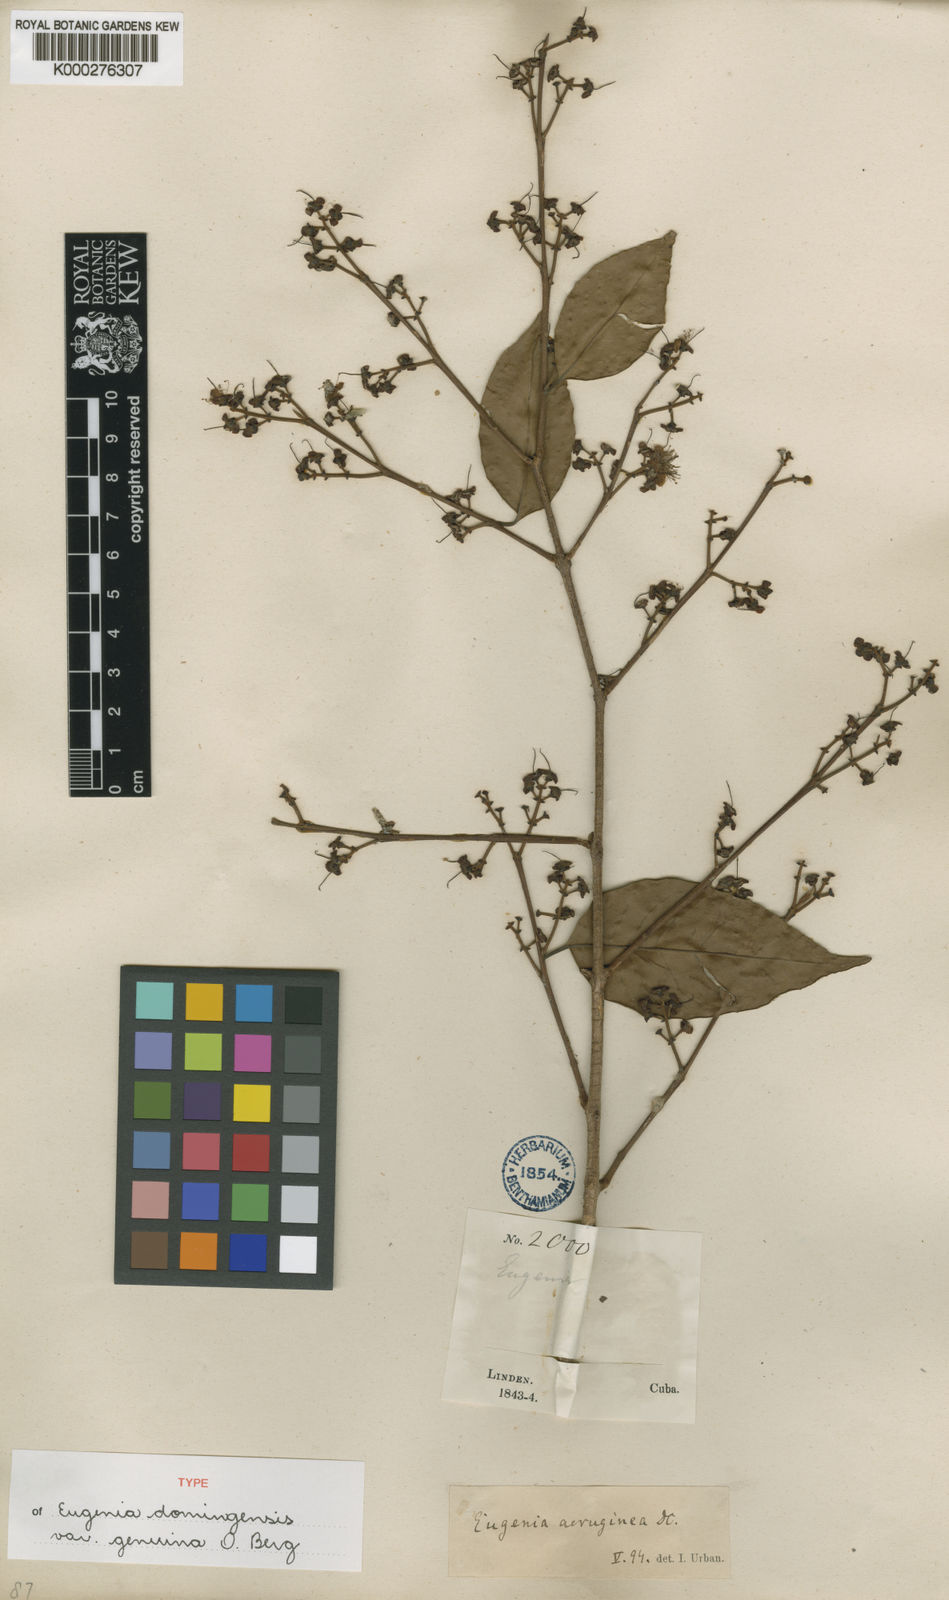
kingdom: Plantae
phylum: Tracheophyta
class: Magnoliopsida
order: Myrtales
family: Myrtaceae
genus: Eugenia
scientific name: Eugenia domingensis
